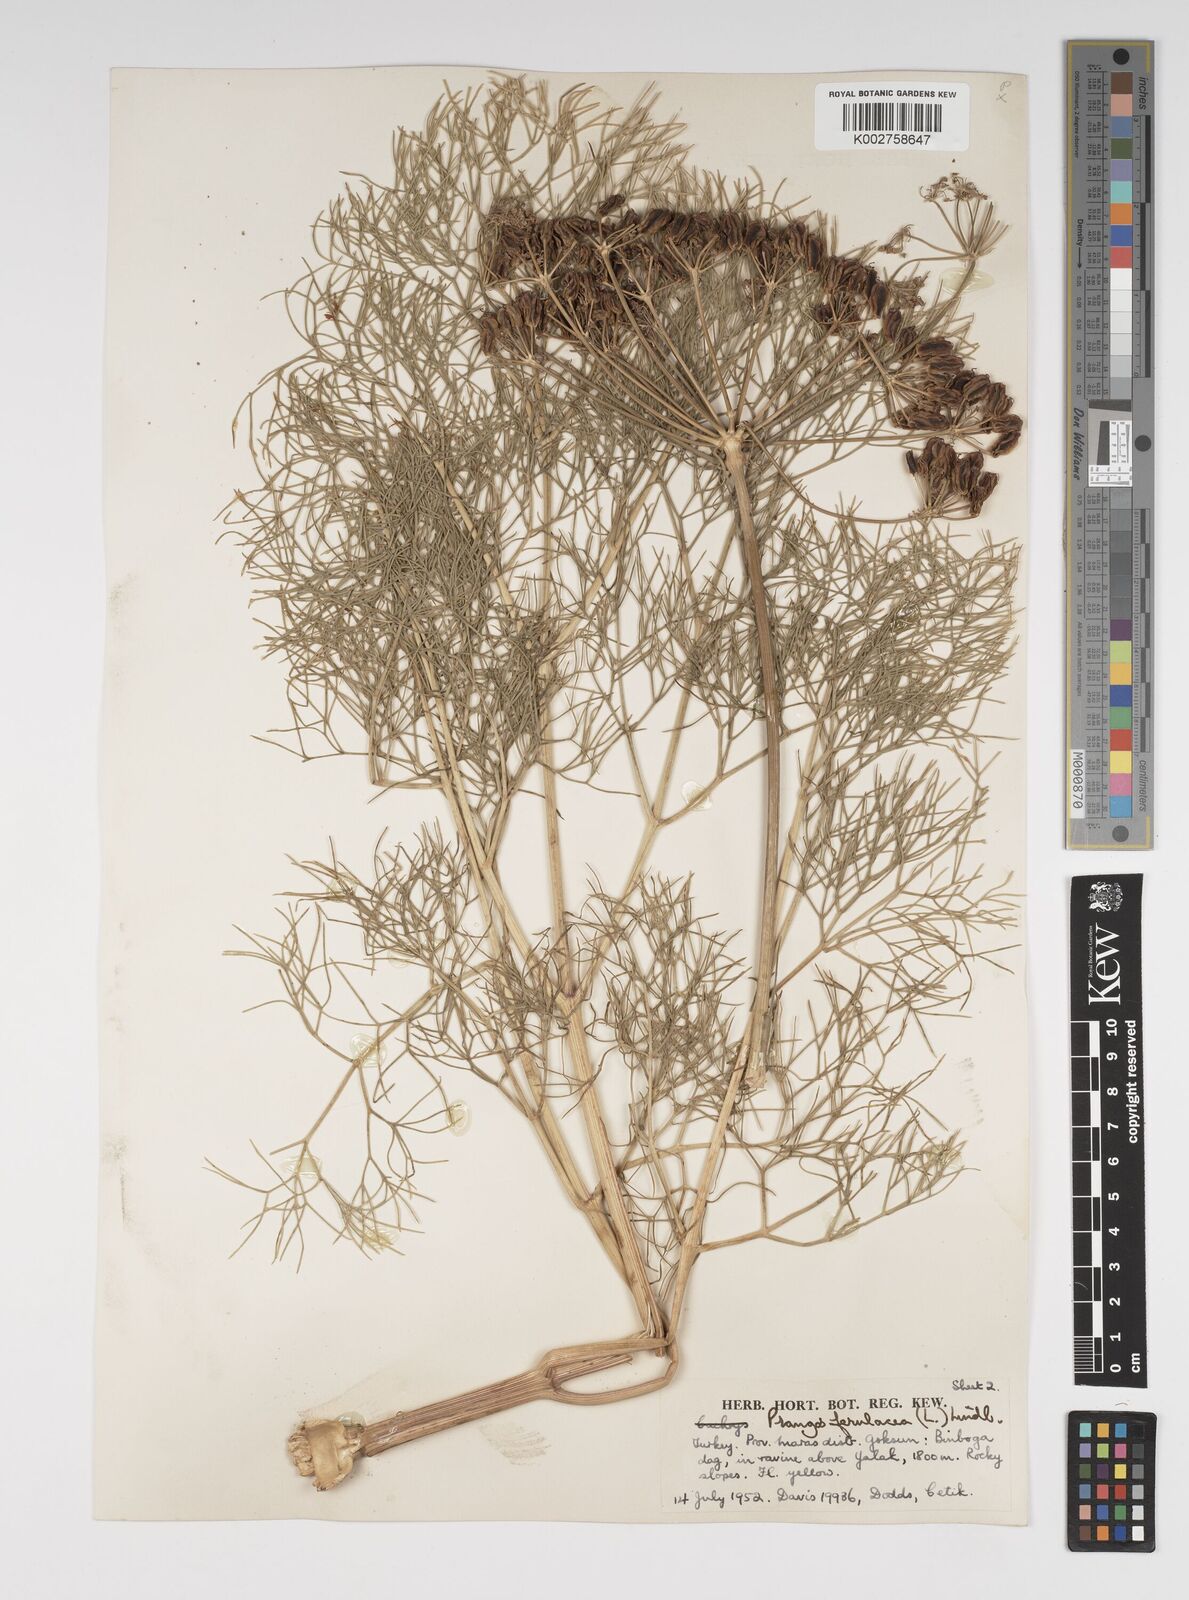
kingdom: Plantae
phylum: Tracheophyta
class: Magnoliopsida
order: Apiales
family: Apiaceae
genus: Prangos
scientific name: Prangos ferulacea
